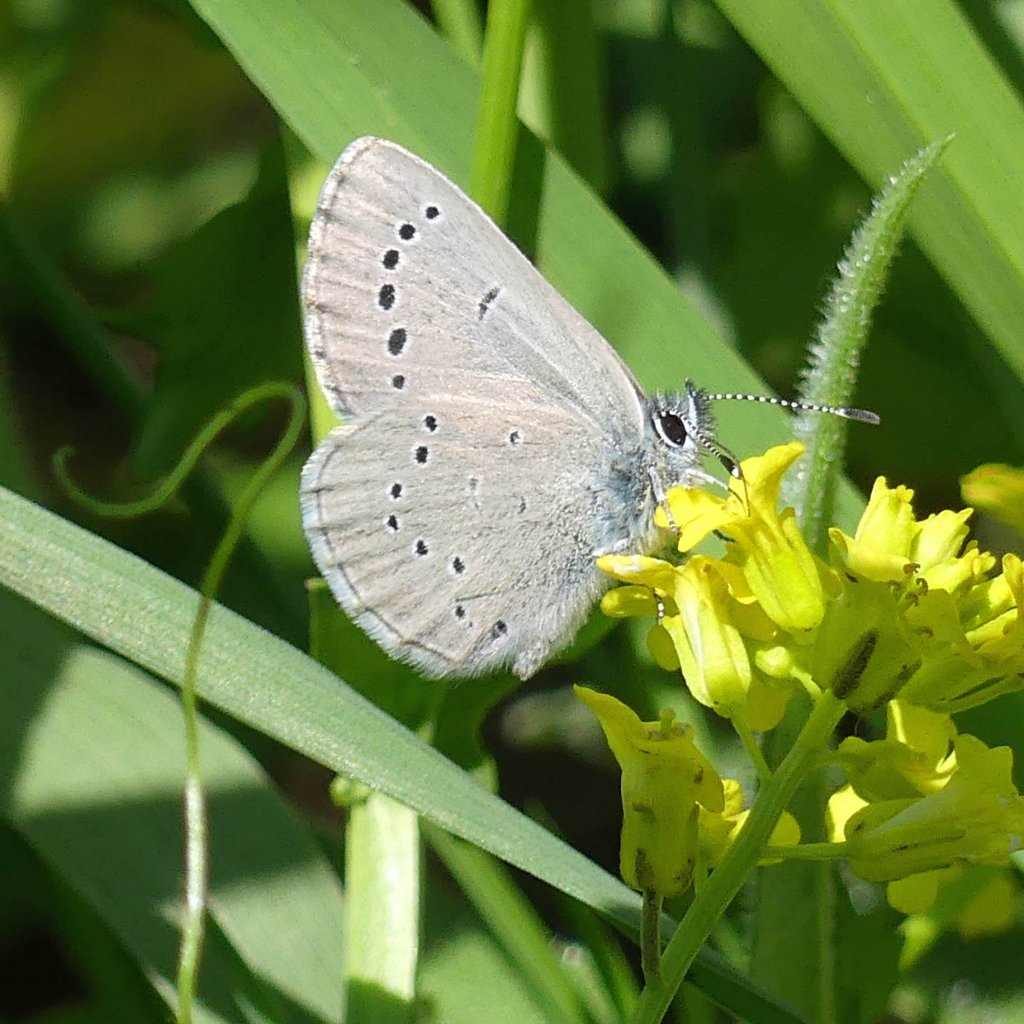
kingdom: Animalia
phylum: Arthropoda
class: Insecta
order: Lepidoptera
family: Lycaenidae
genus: Glaucopsyche
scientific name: Glaucopsyche lygdamus
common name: Silvery Blue
